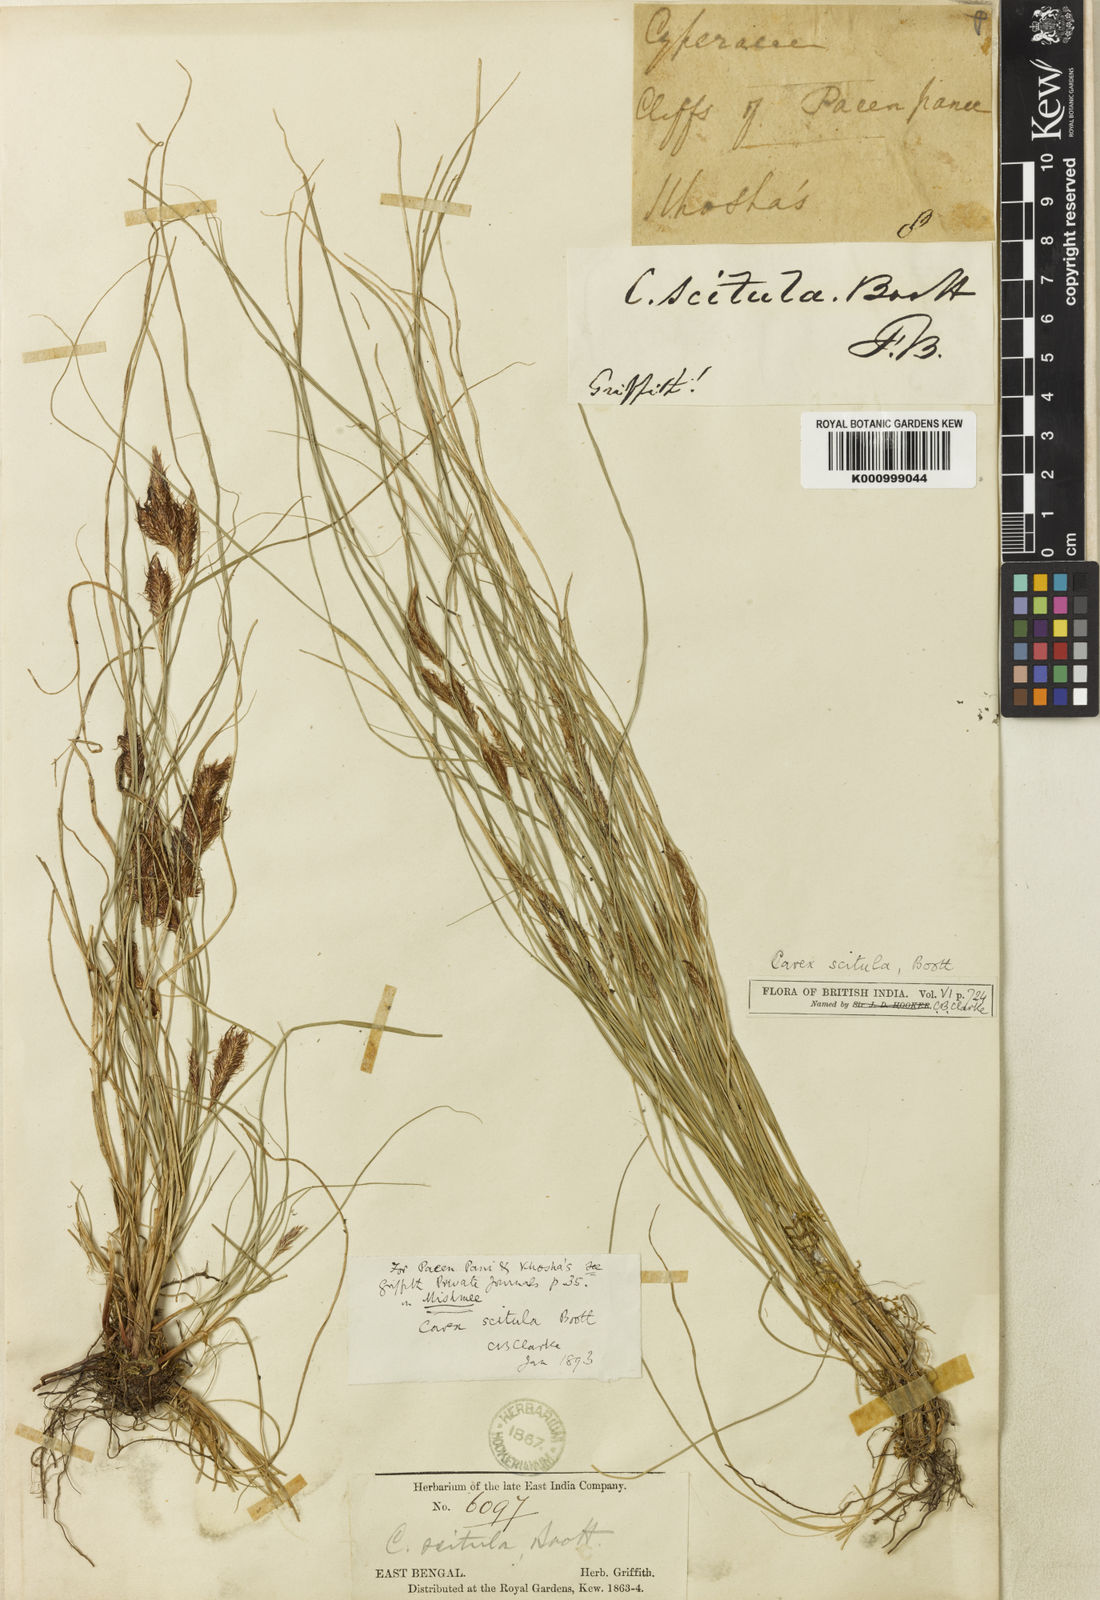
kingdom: Plantae
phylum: Tracheophyta
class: Liliopsida
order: Poales
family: Cyperaceae
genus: Carex
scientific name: Carex scitula
